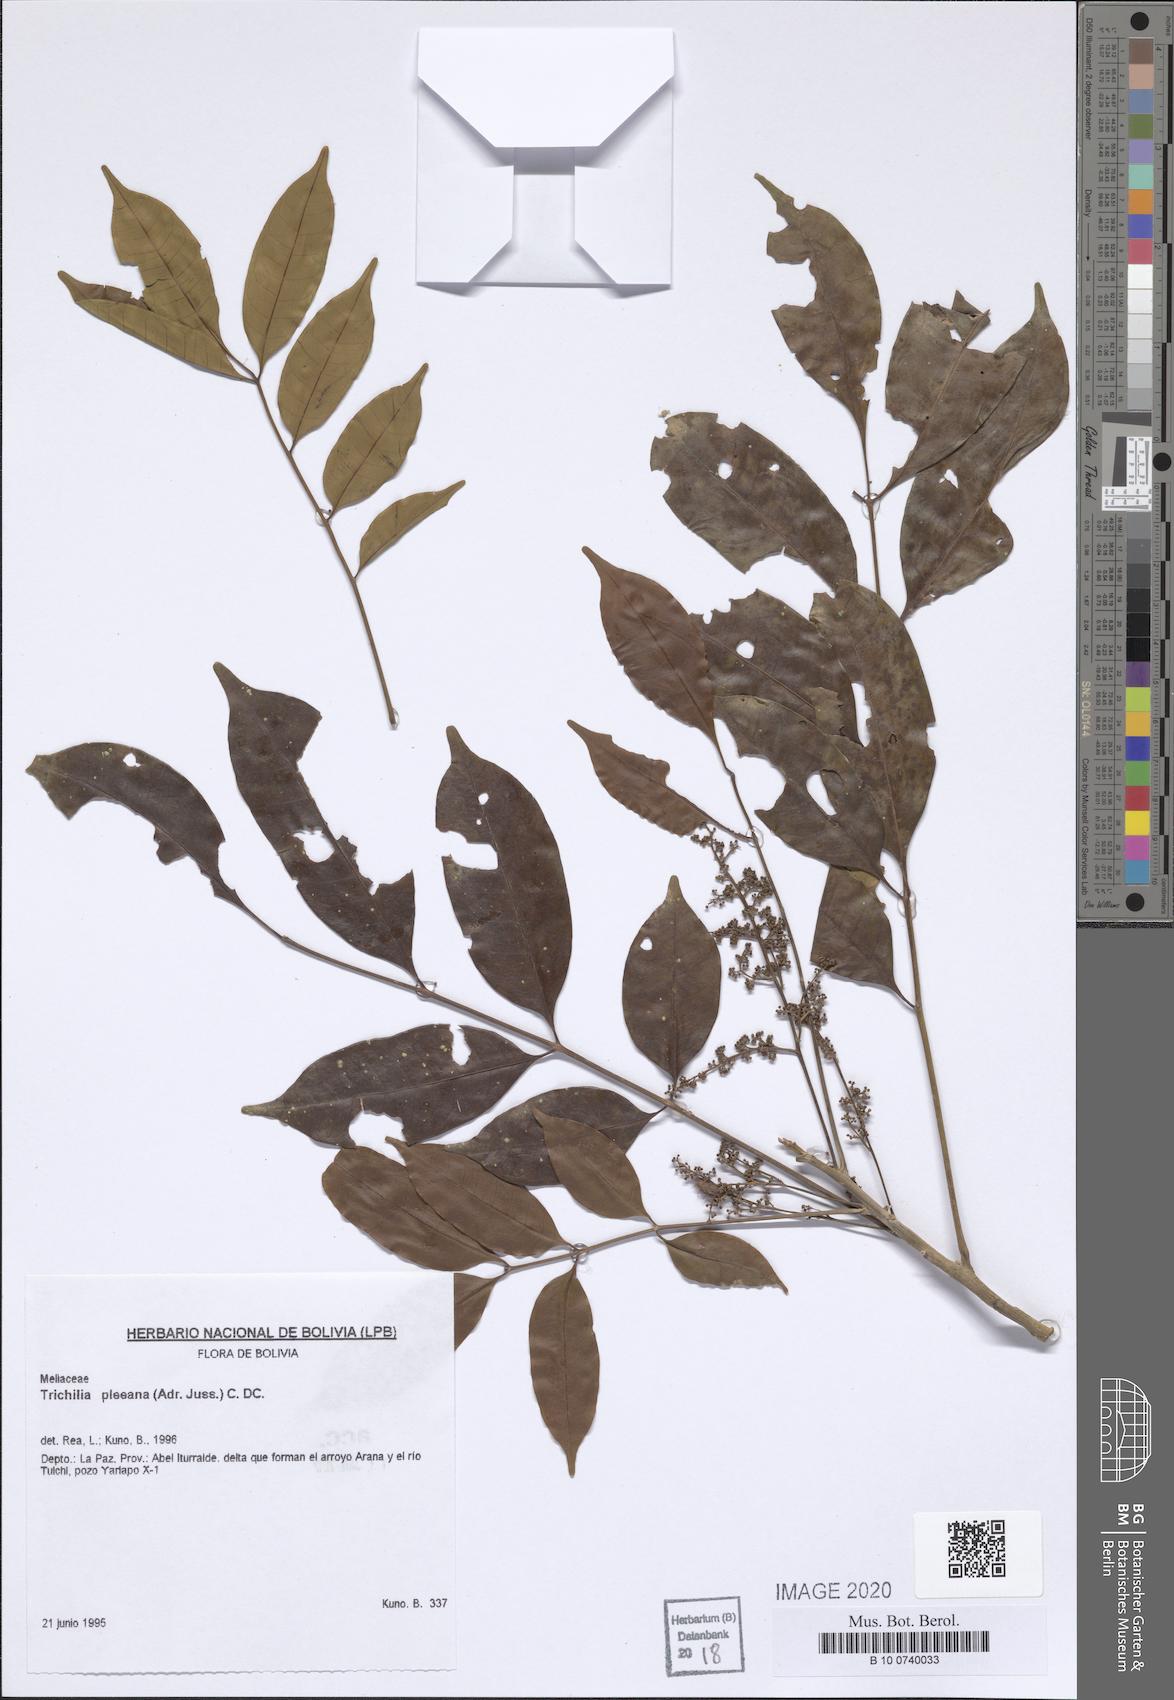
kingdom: Plantae
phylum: Tracheophyta
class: Magnoliopsida
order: Sapindales
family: Meliaceae
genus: Trichilia
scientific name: Trichilia pleeana
